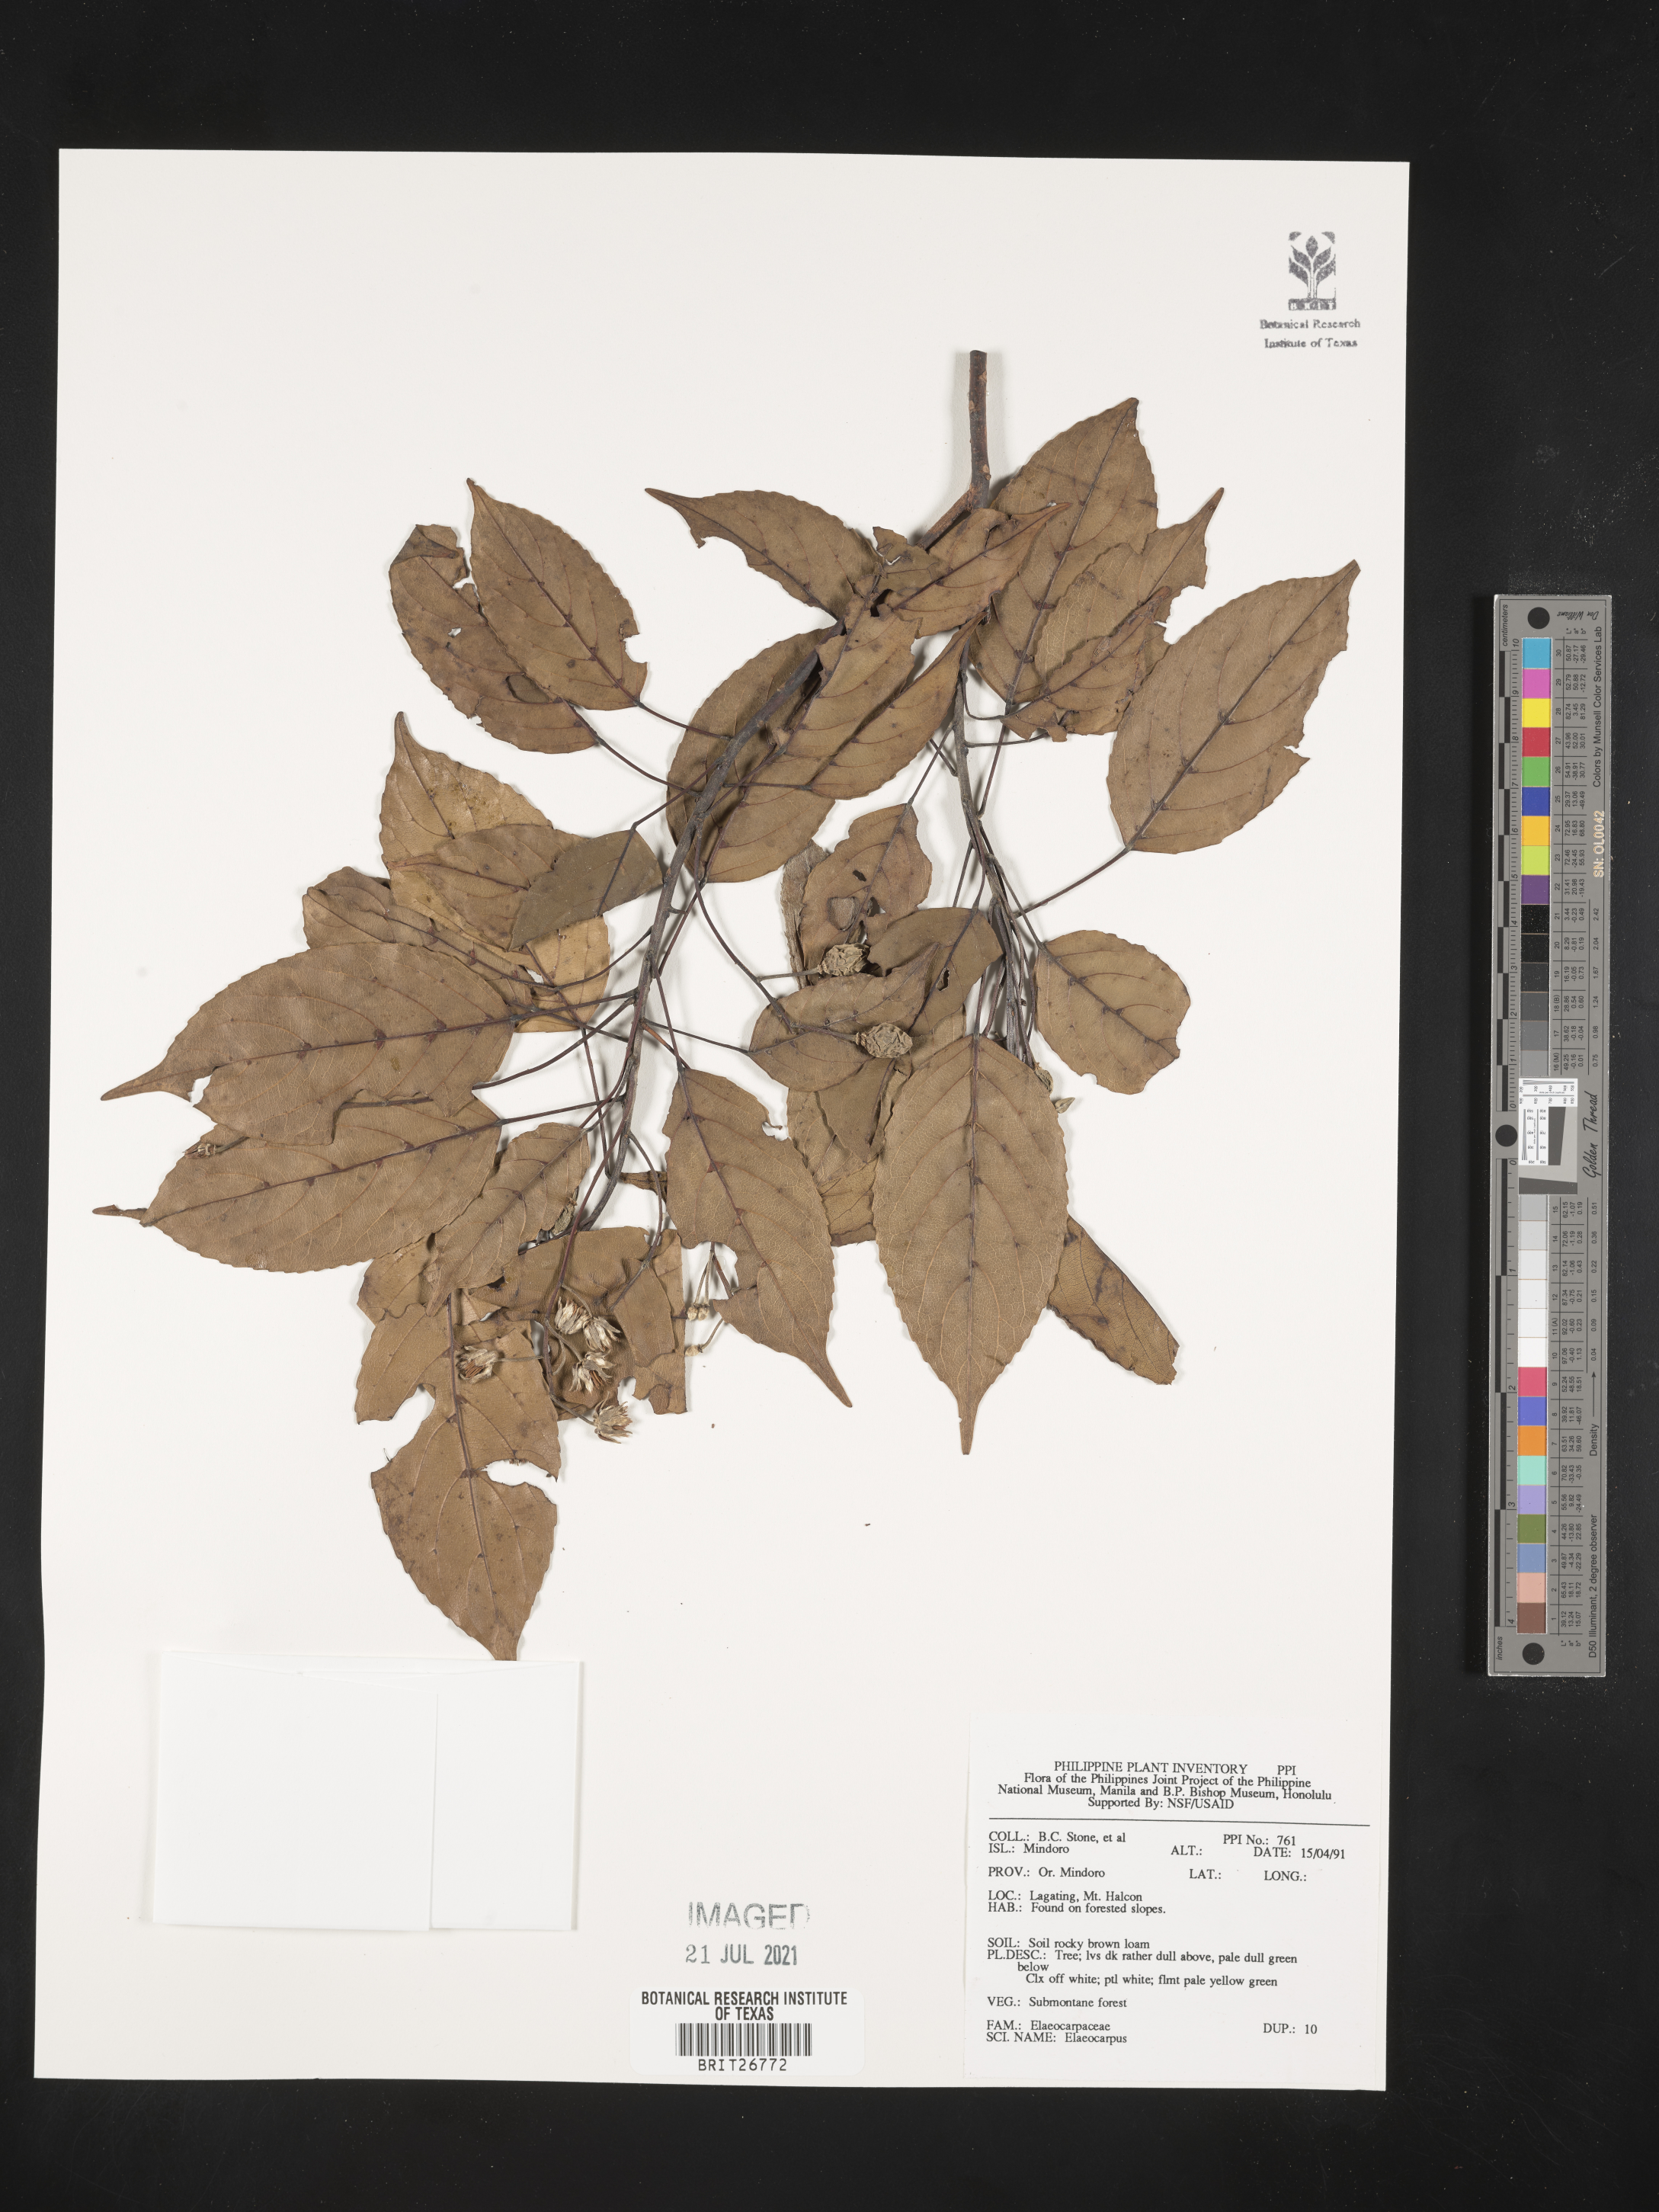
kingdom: Plantae
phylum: Tracheophyta
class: Magnoliopsida
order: Oxalidales
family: Elaeocarpaceae
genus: Elaeocarpus
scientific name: Elaeocarpus
